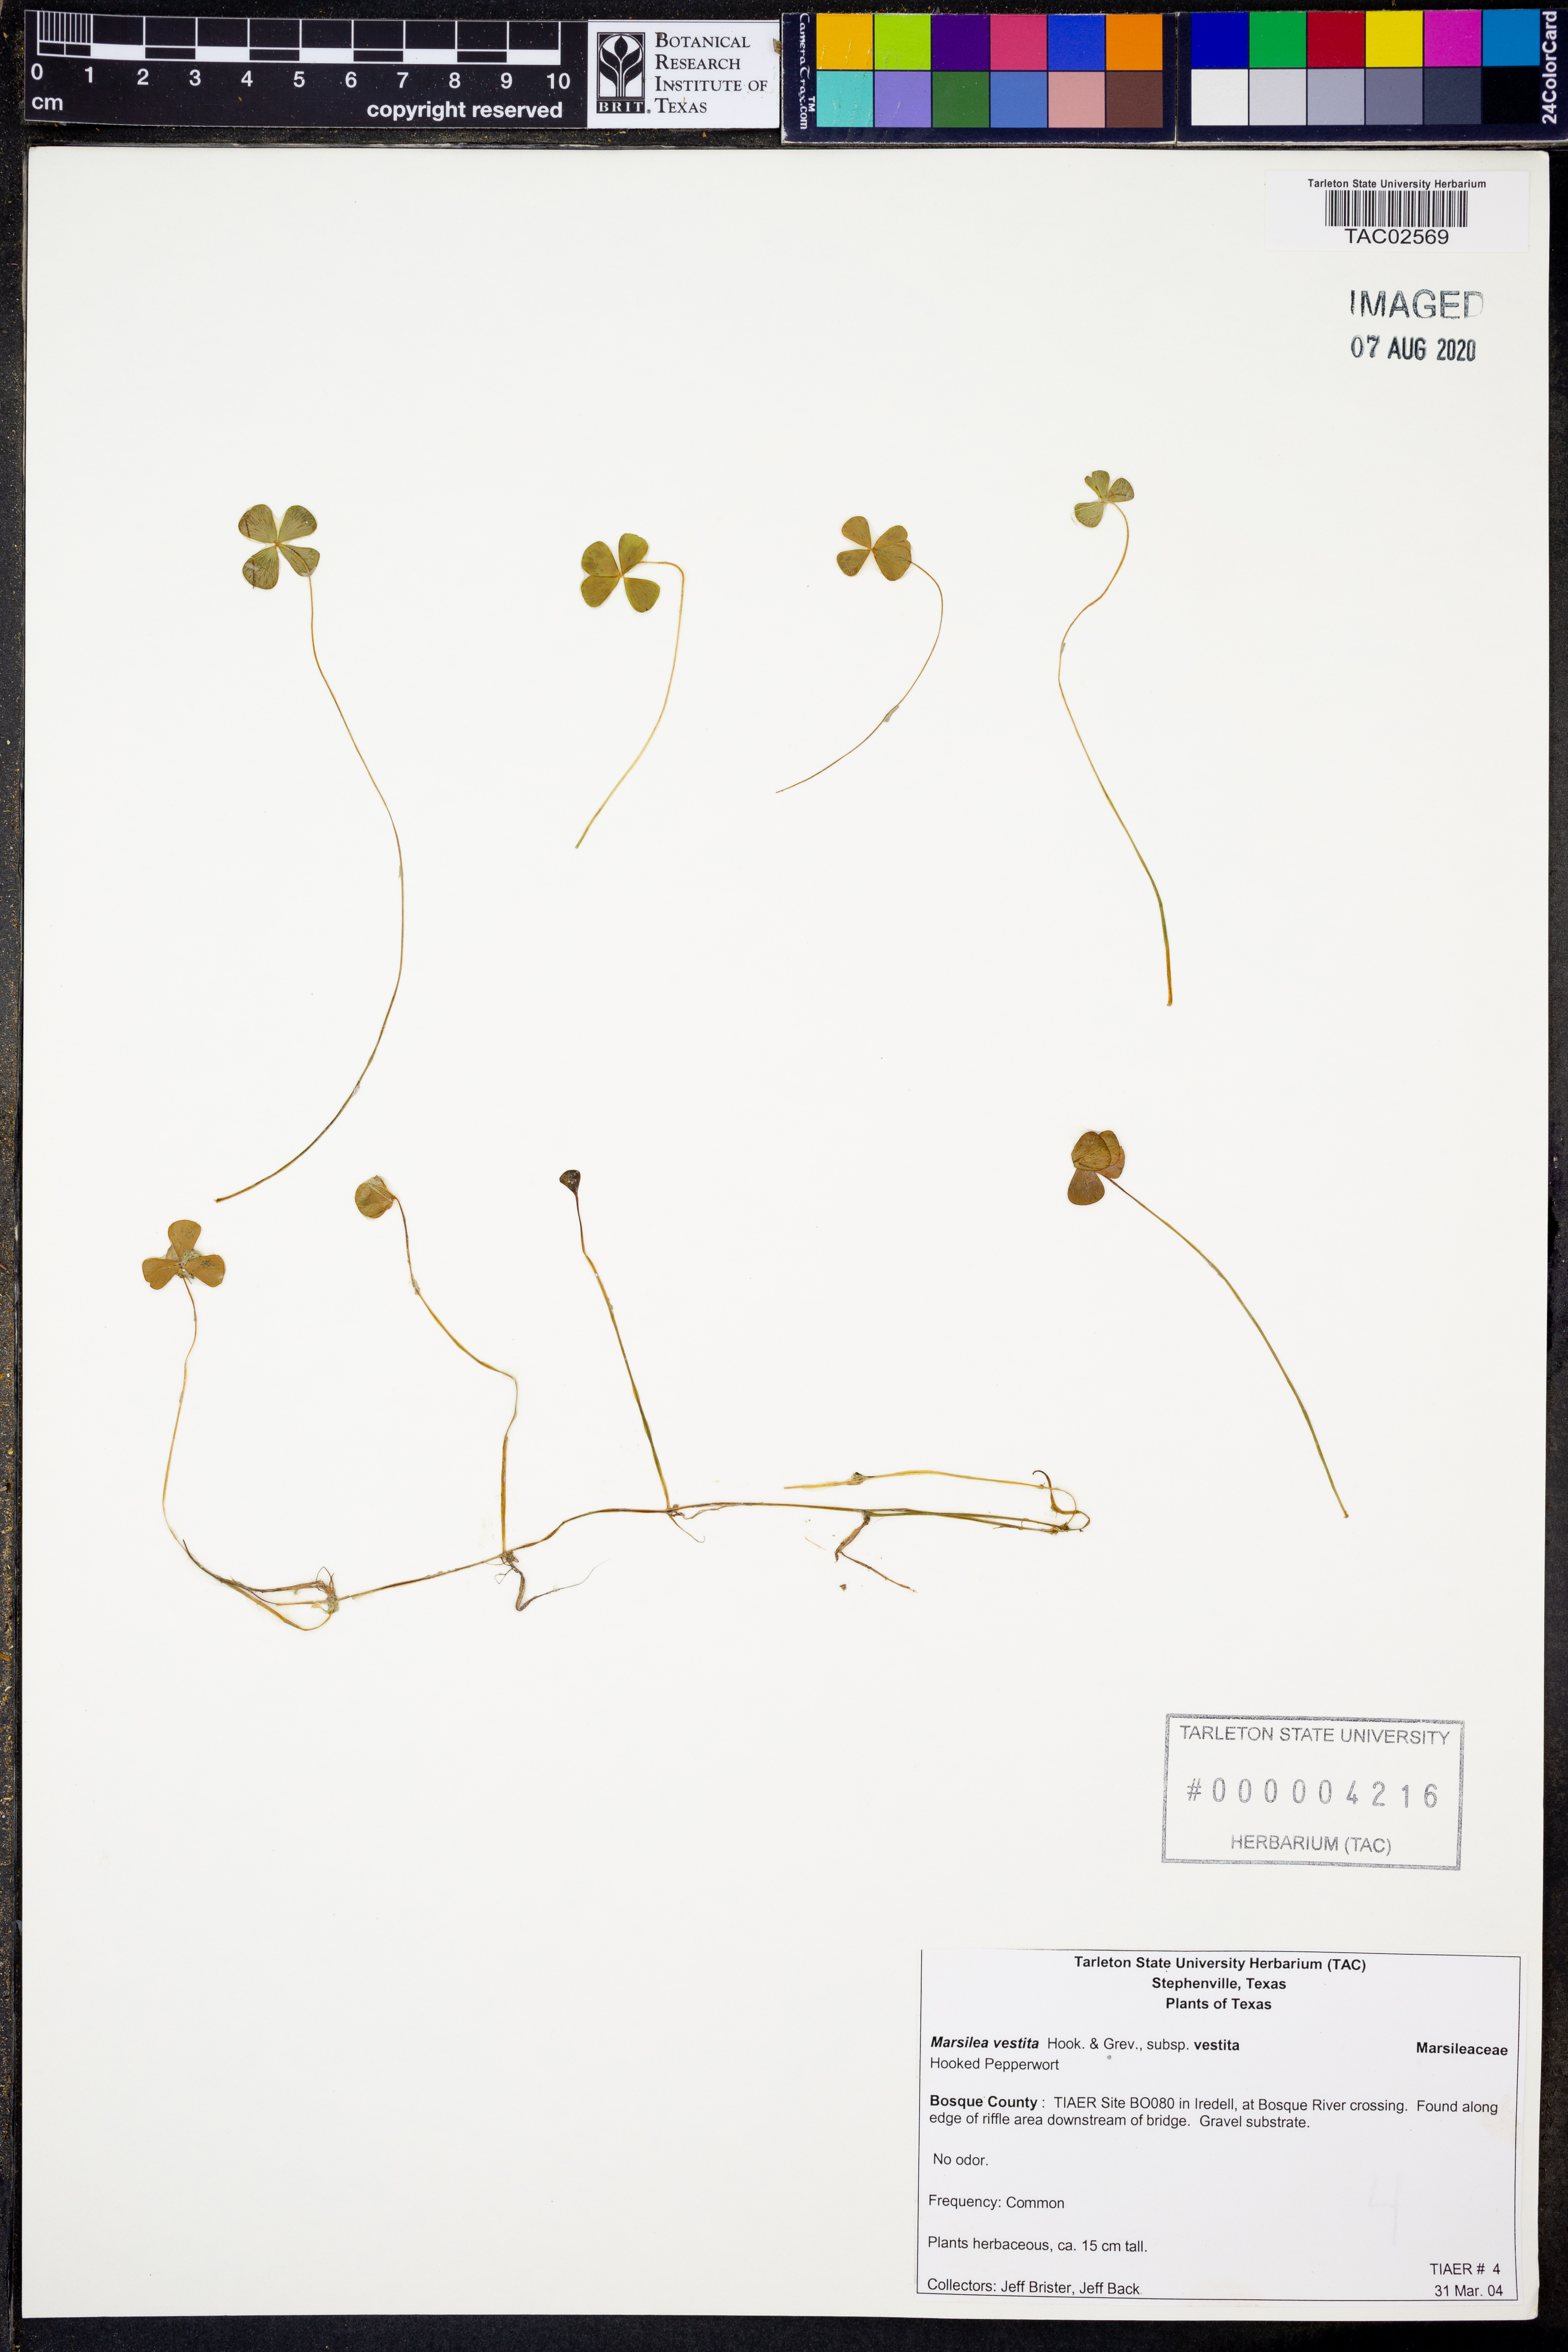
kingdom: Plantae
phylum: Tracheophyta
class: Polypodiopsida
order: Salviniales
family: Marsileaceae
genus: Marsilea
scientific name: Marsilea vestita
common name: Hooked-pepperwort
